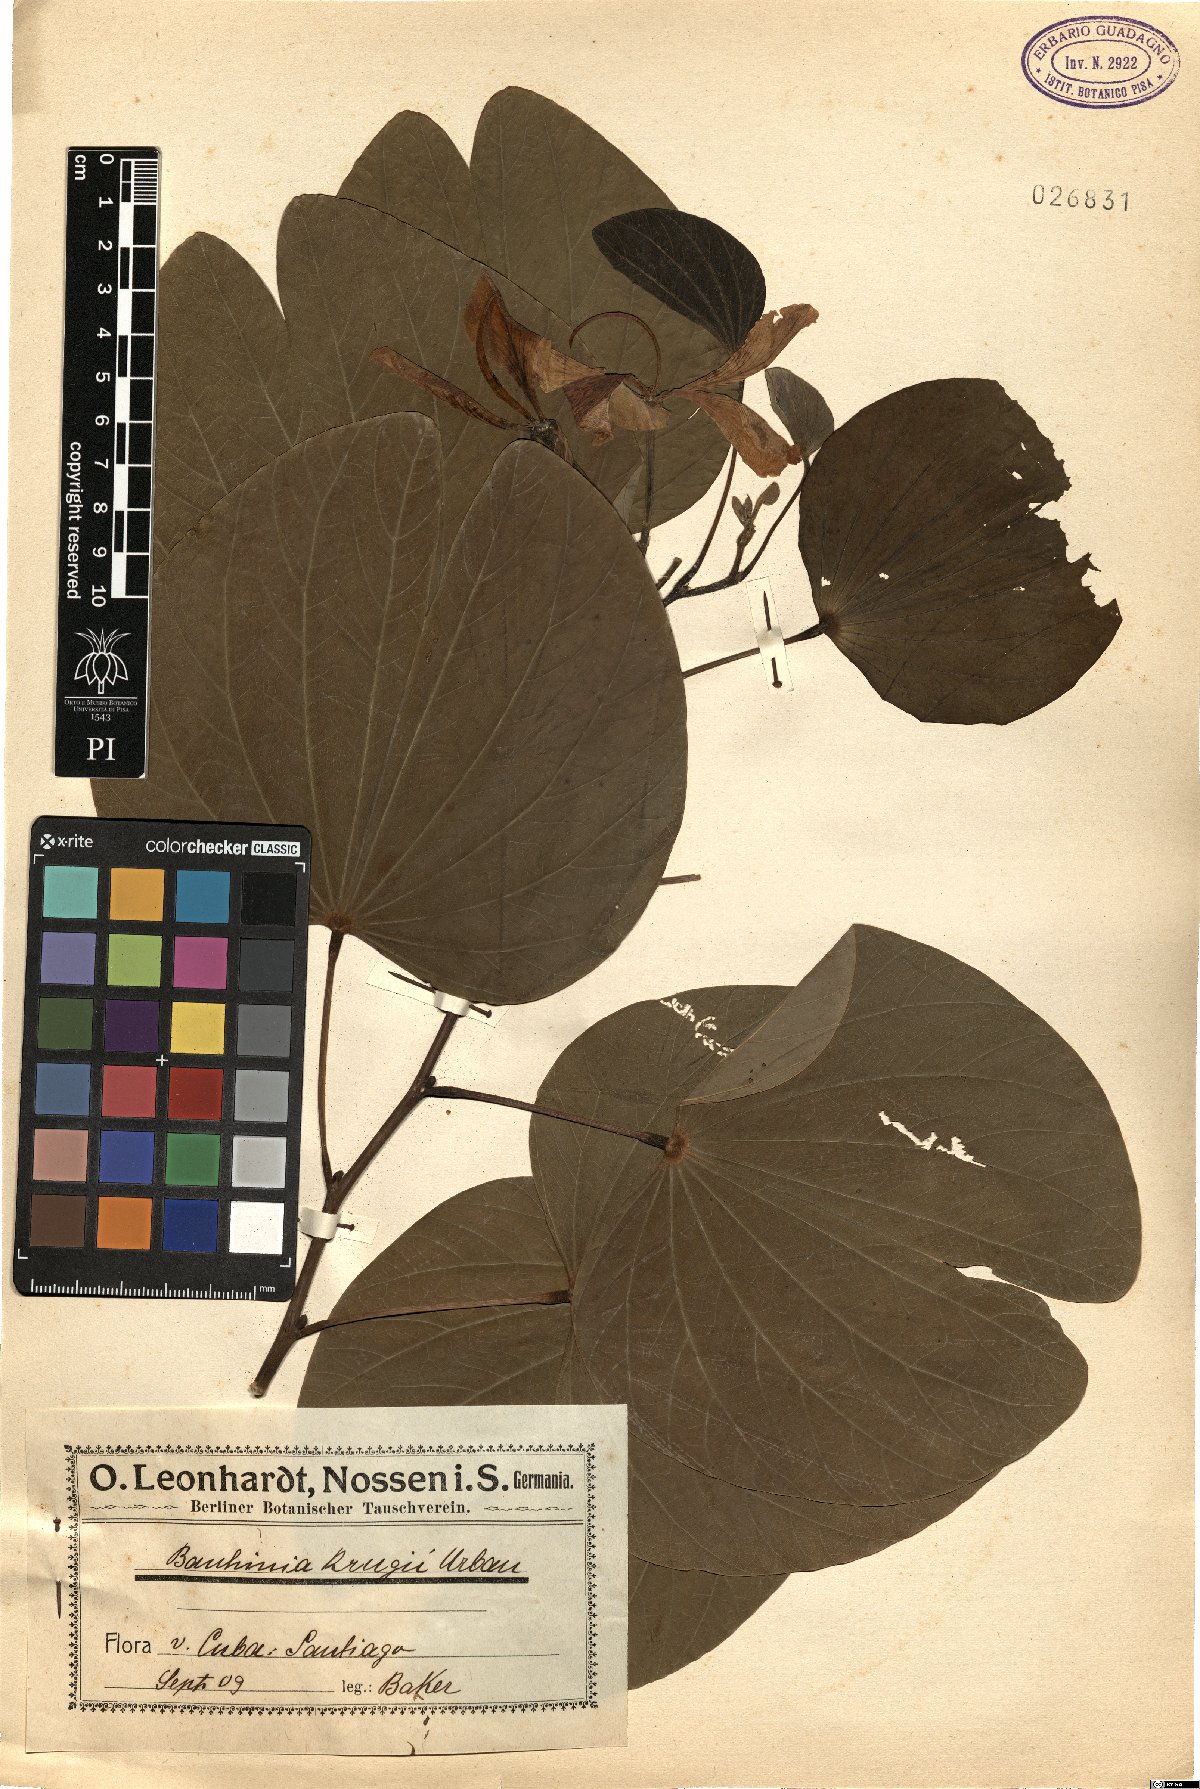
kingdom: Plantae
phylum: Tracheophyta
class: Magnoliopsida
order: Fabales
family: Fabaceae
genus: Bauhinia
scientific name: Bauhinia monandra
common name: Napoleon's plume
